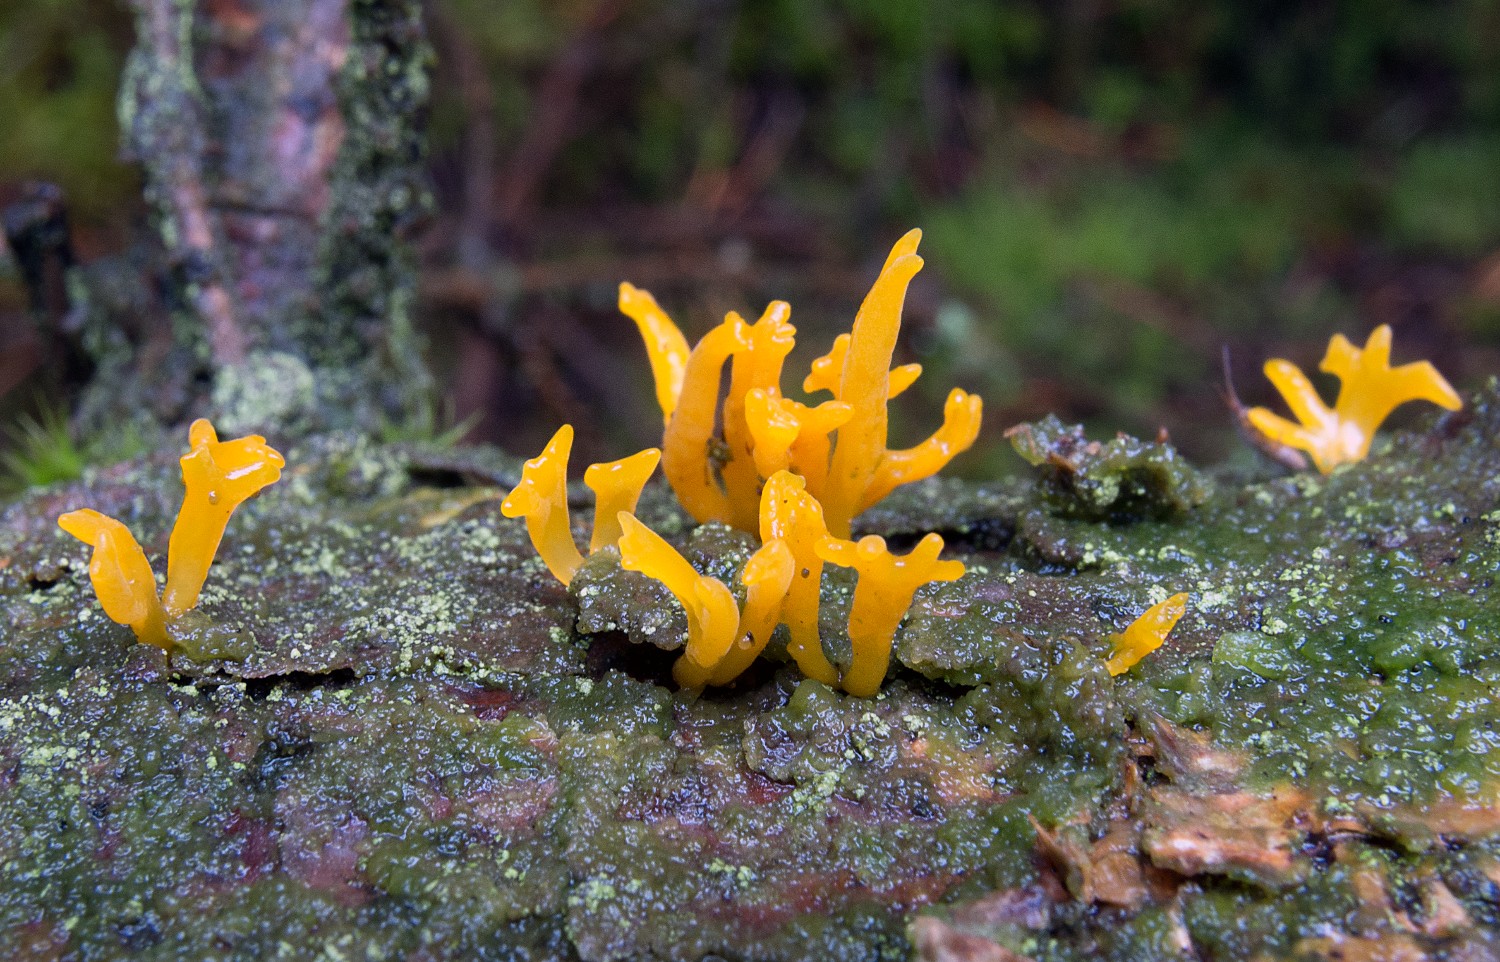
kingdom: Fungi
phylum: Basidiomycota
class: Dacrymycetes
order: Dacrymycetales
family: Dacrymycetaceae
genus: Calocera
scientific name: Calocera furcata
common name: fyrre-guldgaffel
